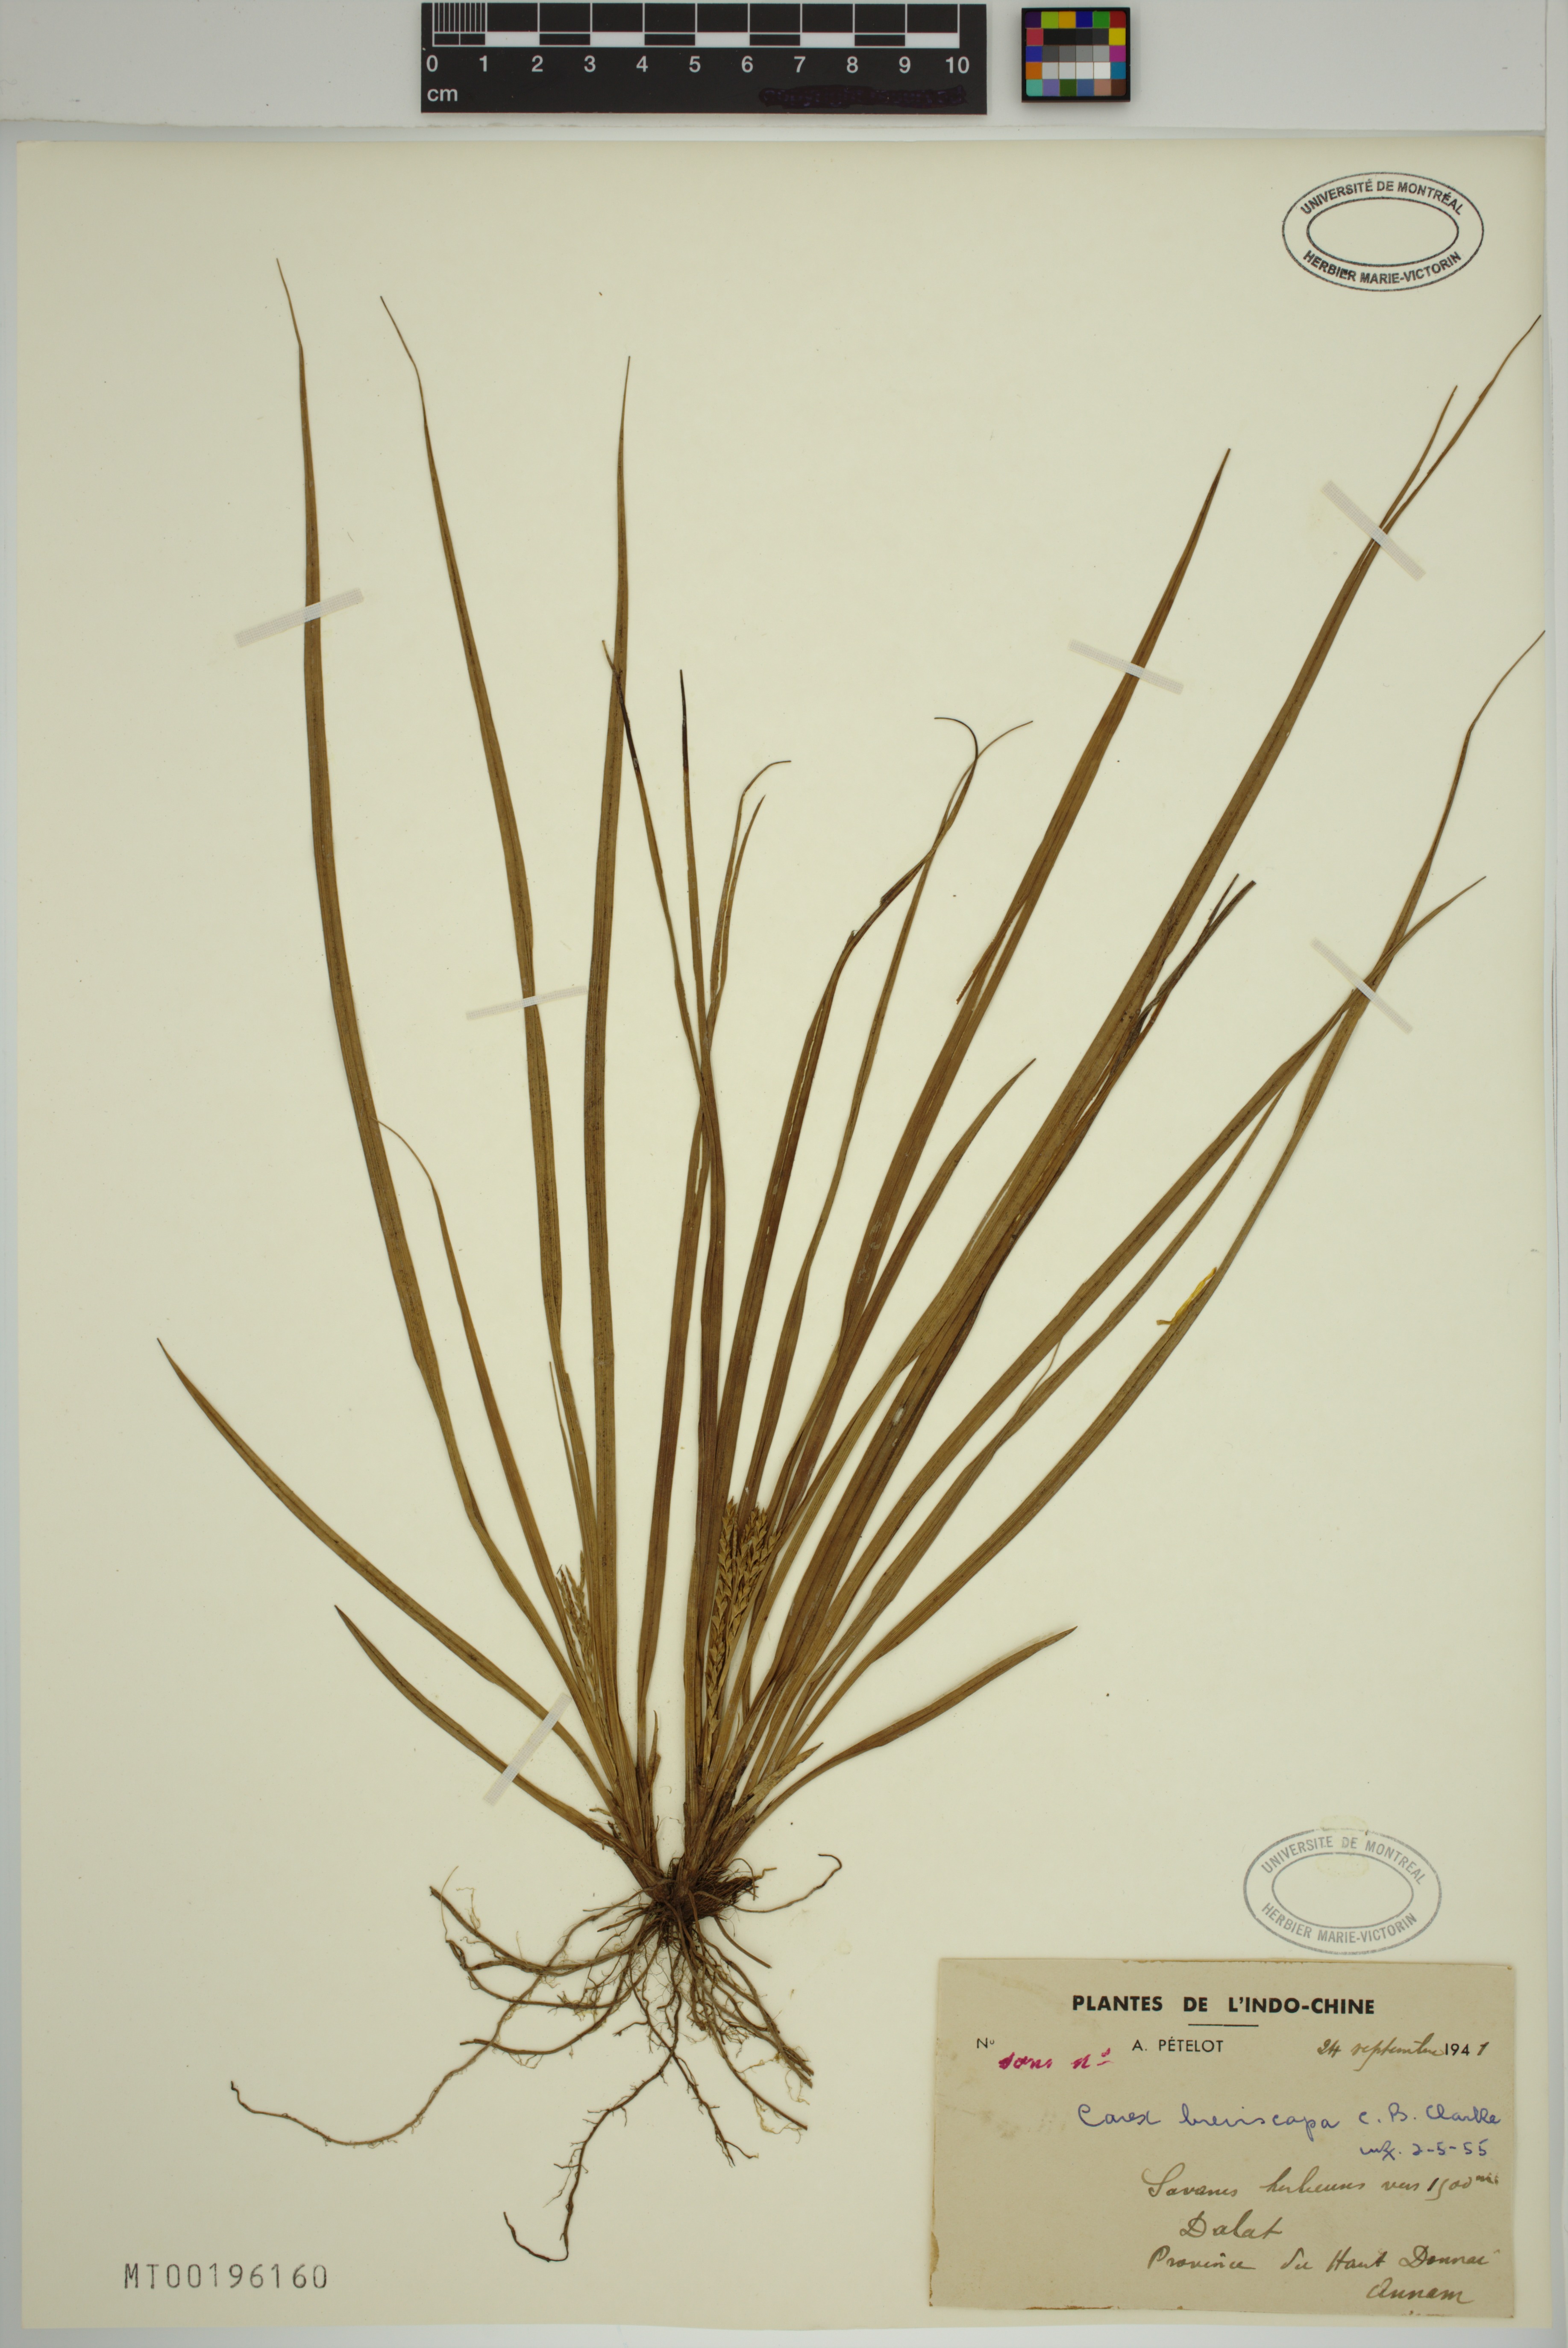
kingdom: Plantae
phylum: Tracheophyta
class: Liliopsida
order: Poales
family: Cyperaceae
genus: Carex
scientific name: Carex breviscapa
